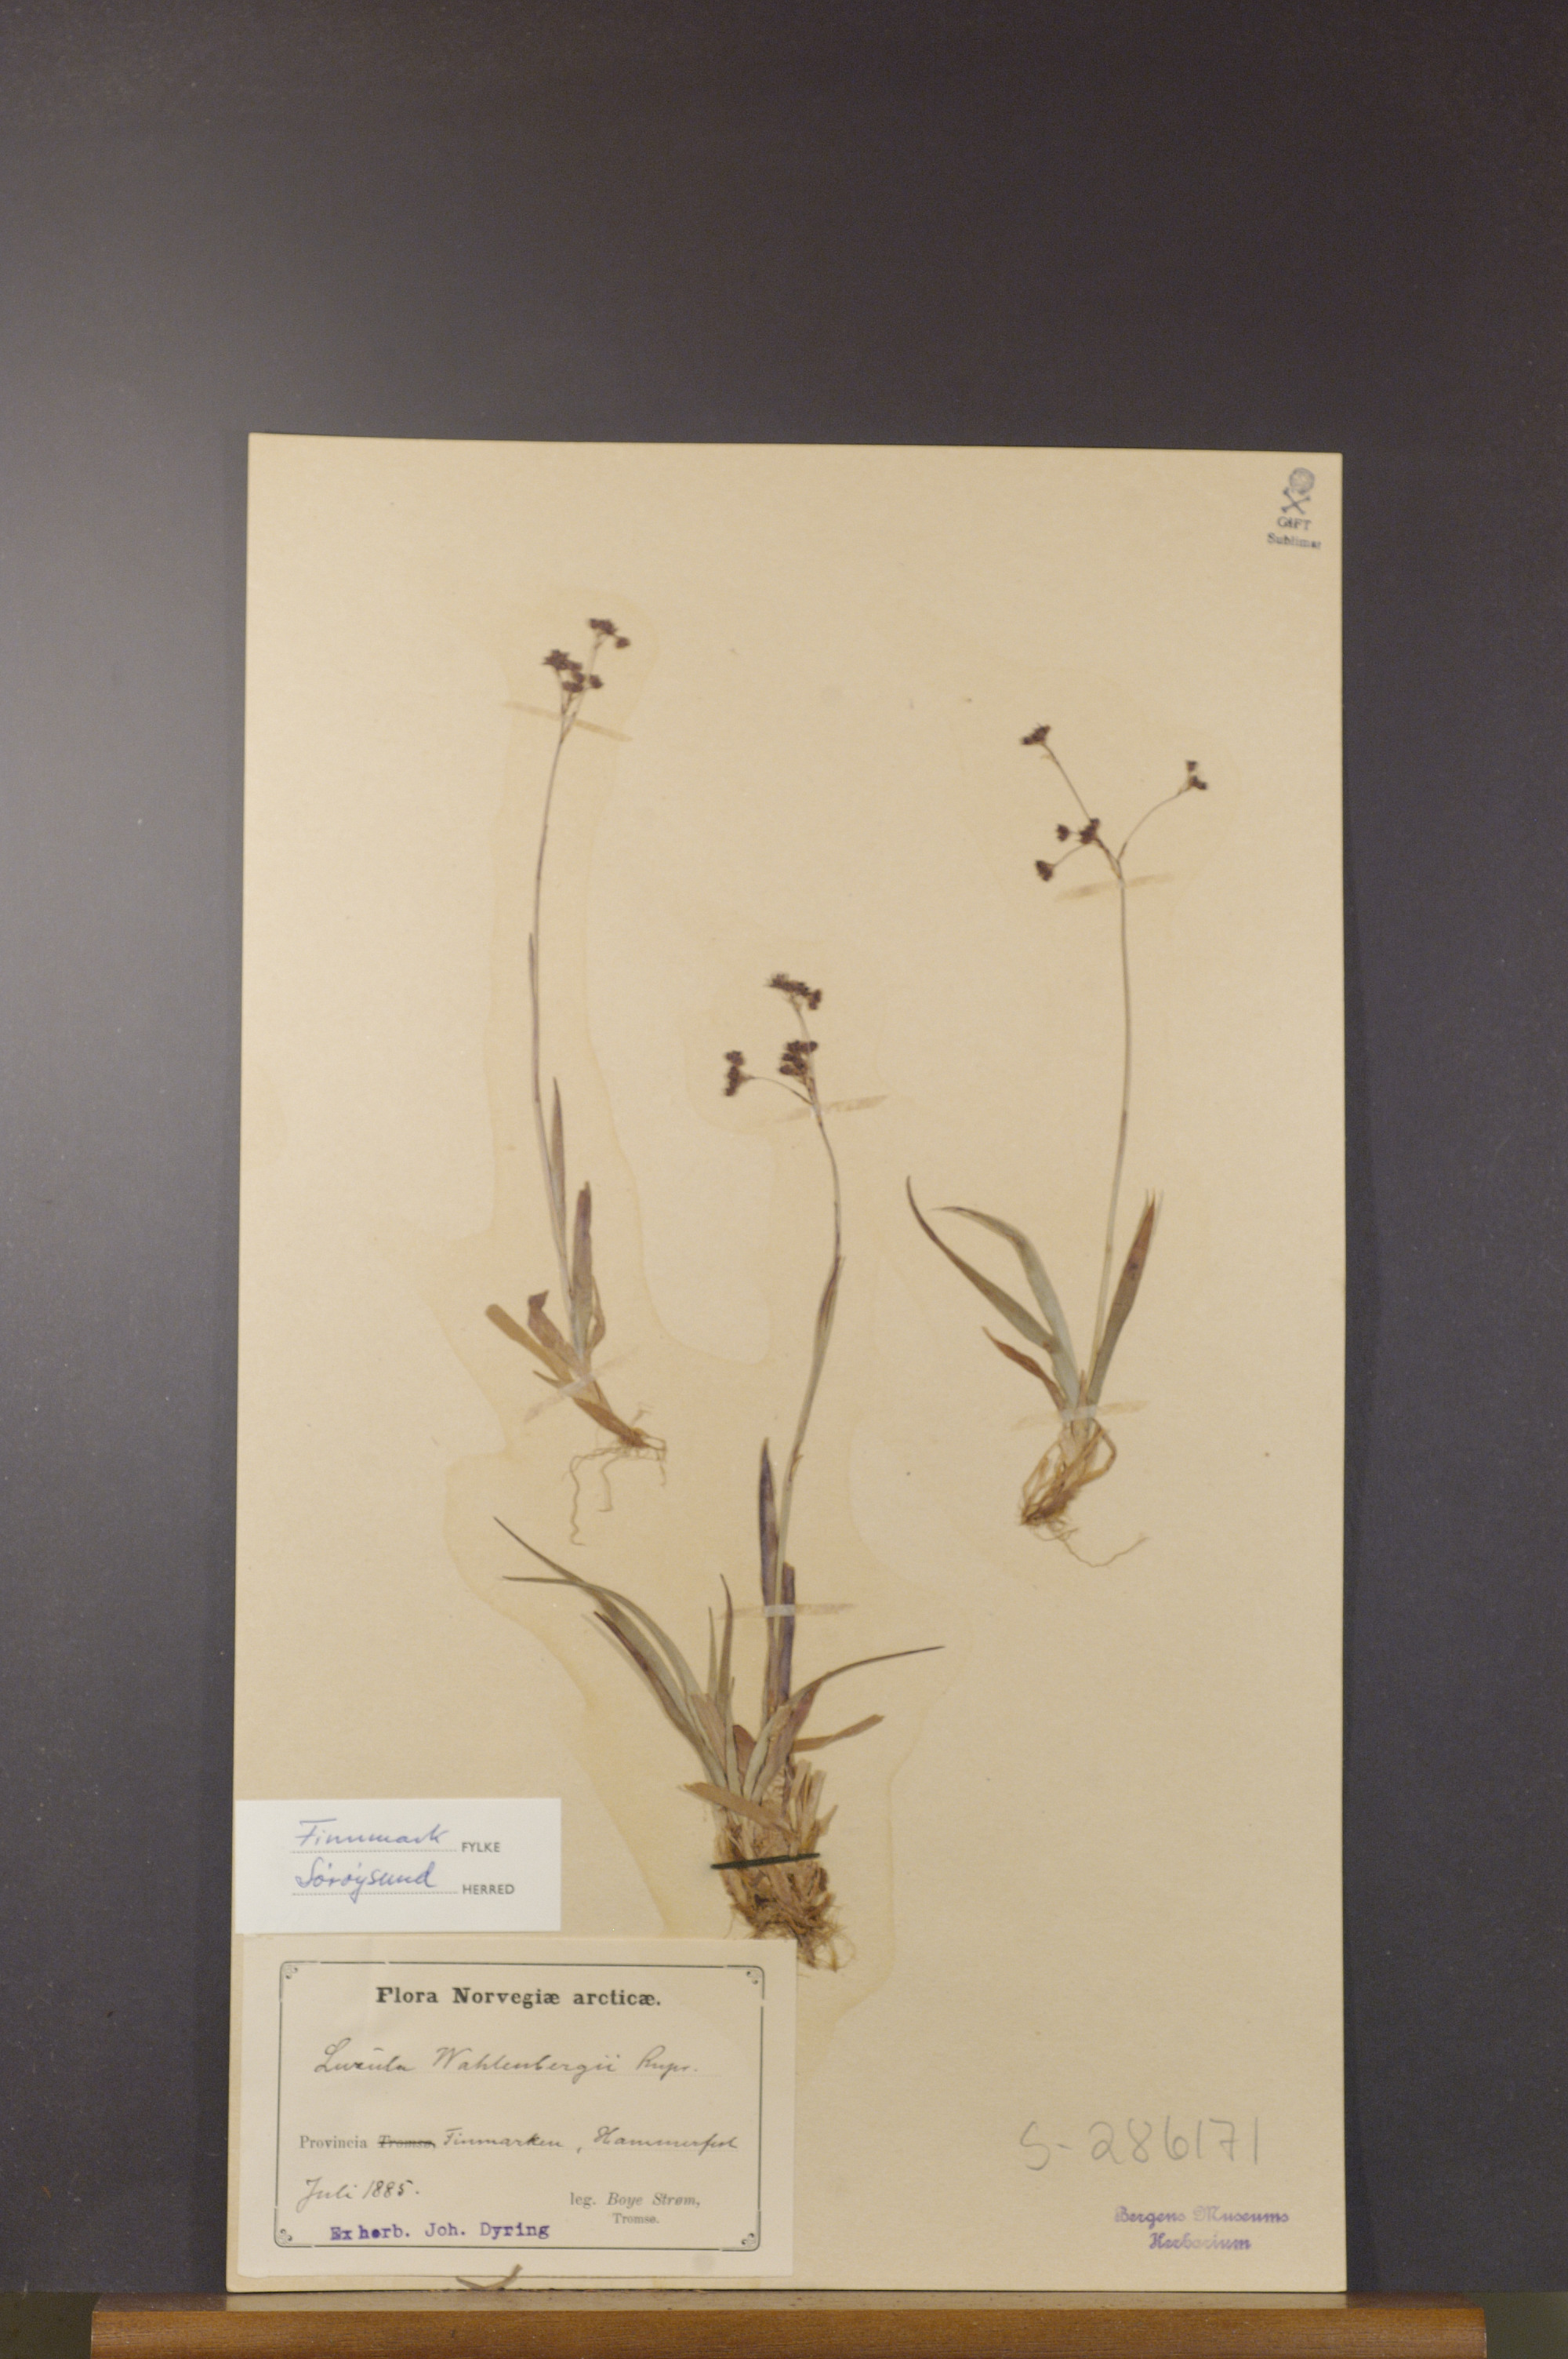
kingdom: Plantae
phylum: Tracheophyta
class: Liliopsida
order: Poales
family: Juncaceae
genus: Luzula
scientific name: Luzula wahlenbergii
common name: Wahlenberg's wood-rush
